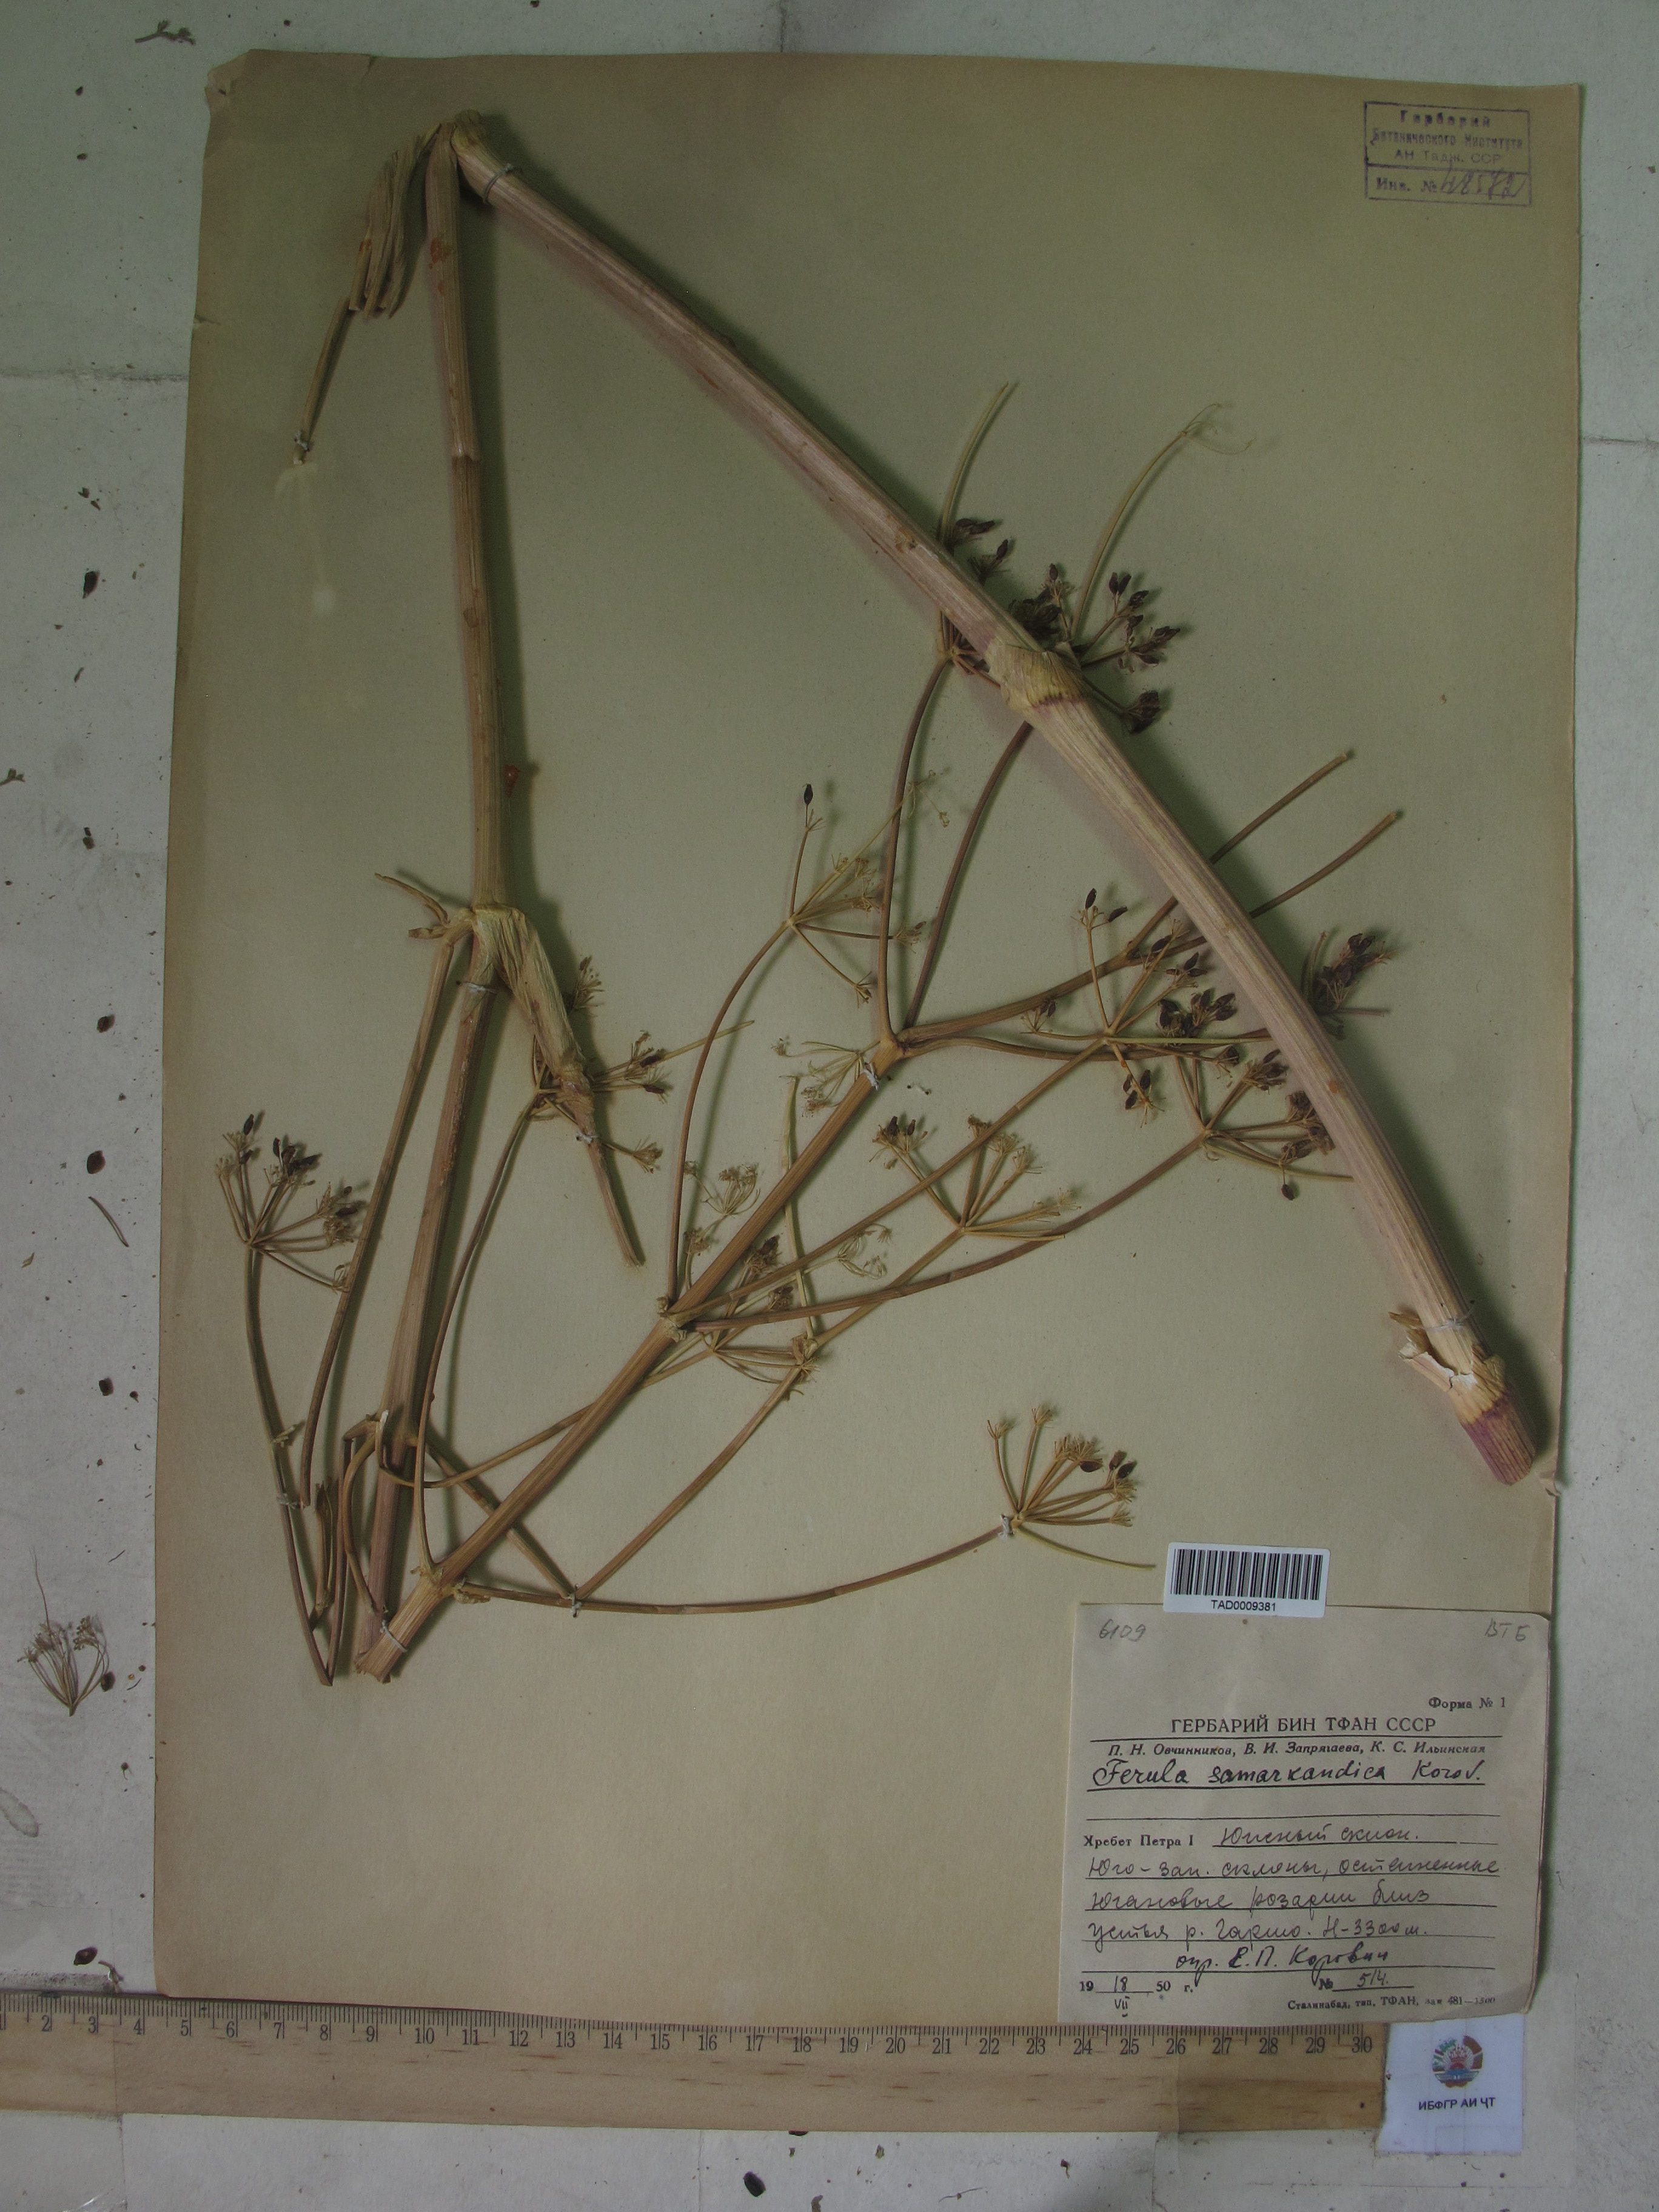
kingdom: Plantae
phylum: Tracheophyta
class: Magnoliopsida
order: Apiales
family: Apiaceae
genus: Ferula
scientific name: Ferula samarkandica
